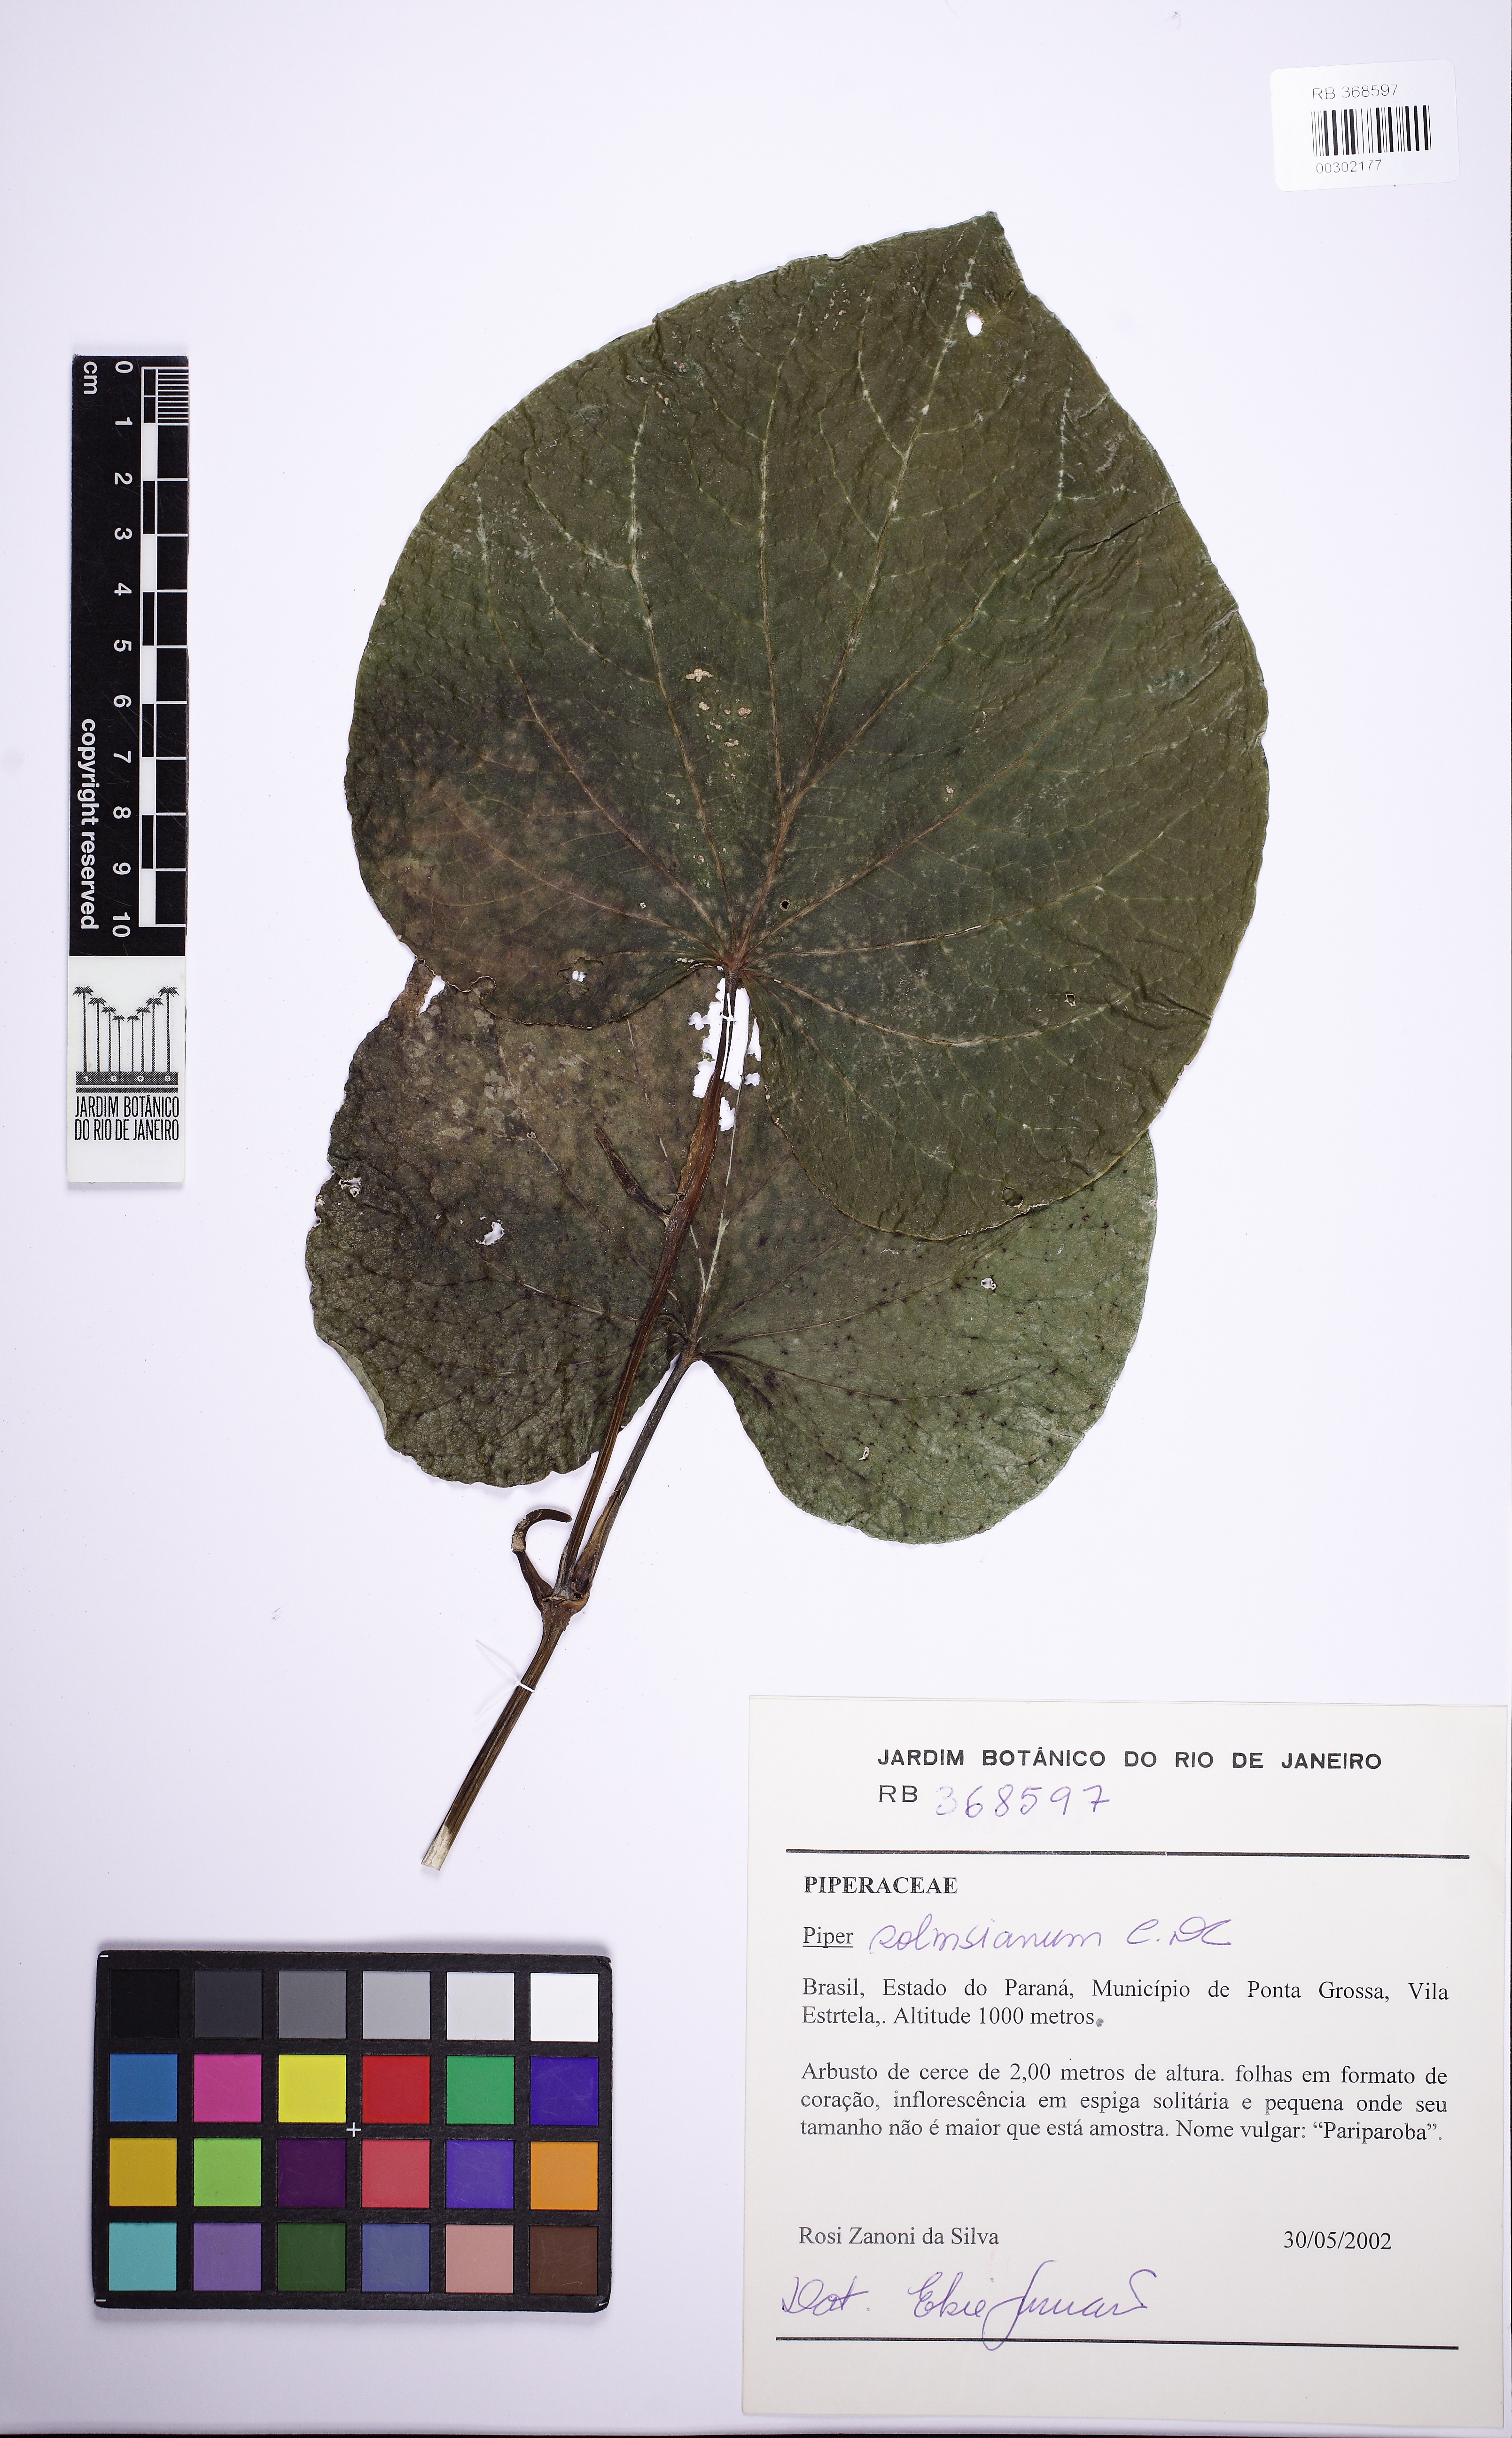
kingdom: Plantae
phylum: Tracheophyta
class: Magnoliopsida
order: Piperales
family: Piperaceae
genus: Piper
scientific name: Piper regnellii
